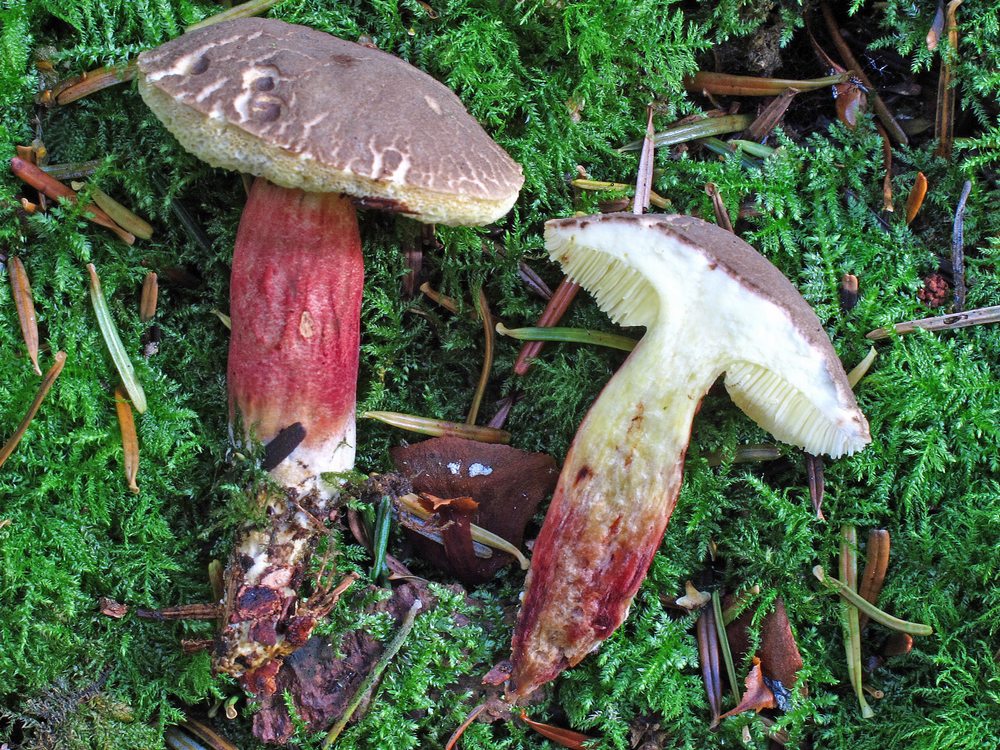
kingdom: Fungi
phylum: Basidiomycota
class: Agaricomycetes
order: Boletales
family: Boletaceae
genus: Xerocomellus
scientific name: Xerocomellus chrysenteron
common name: rødsprukken rørhat
